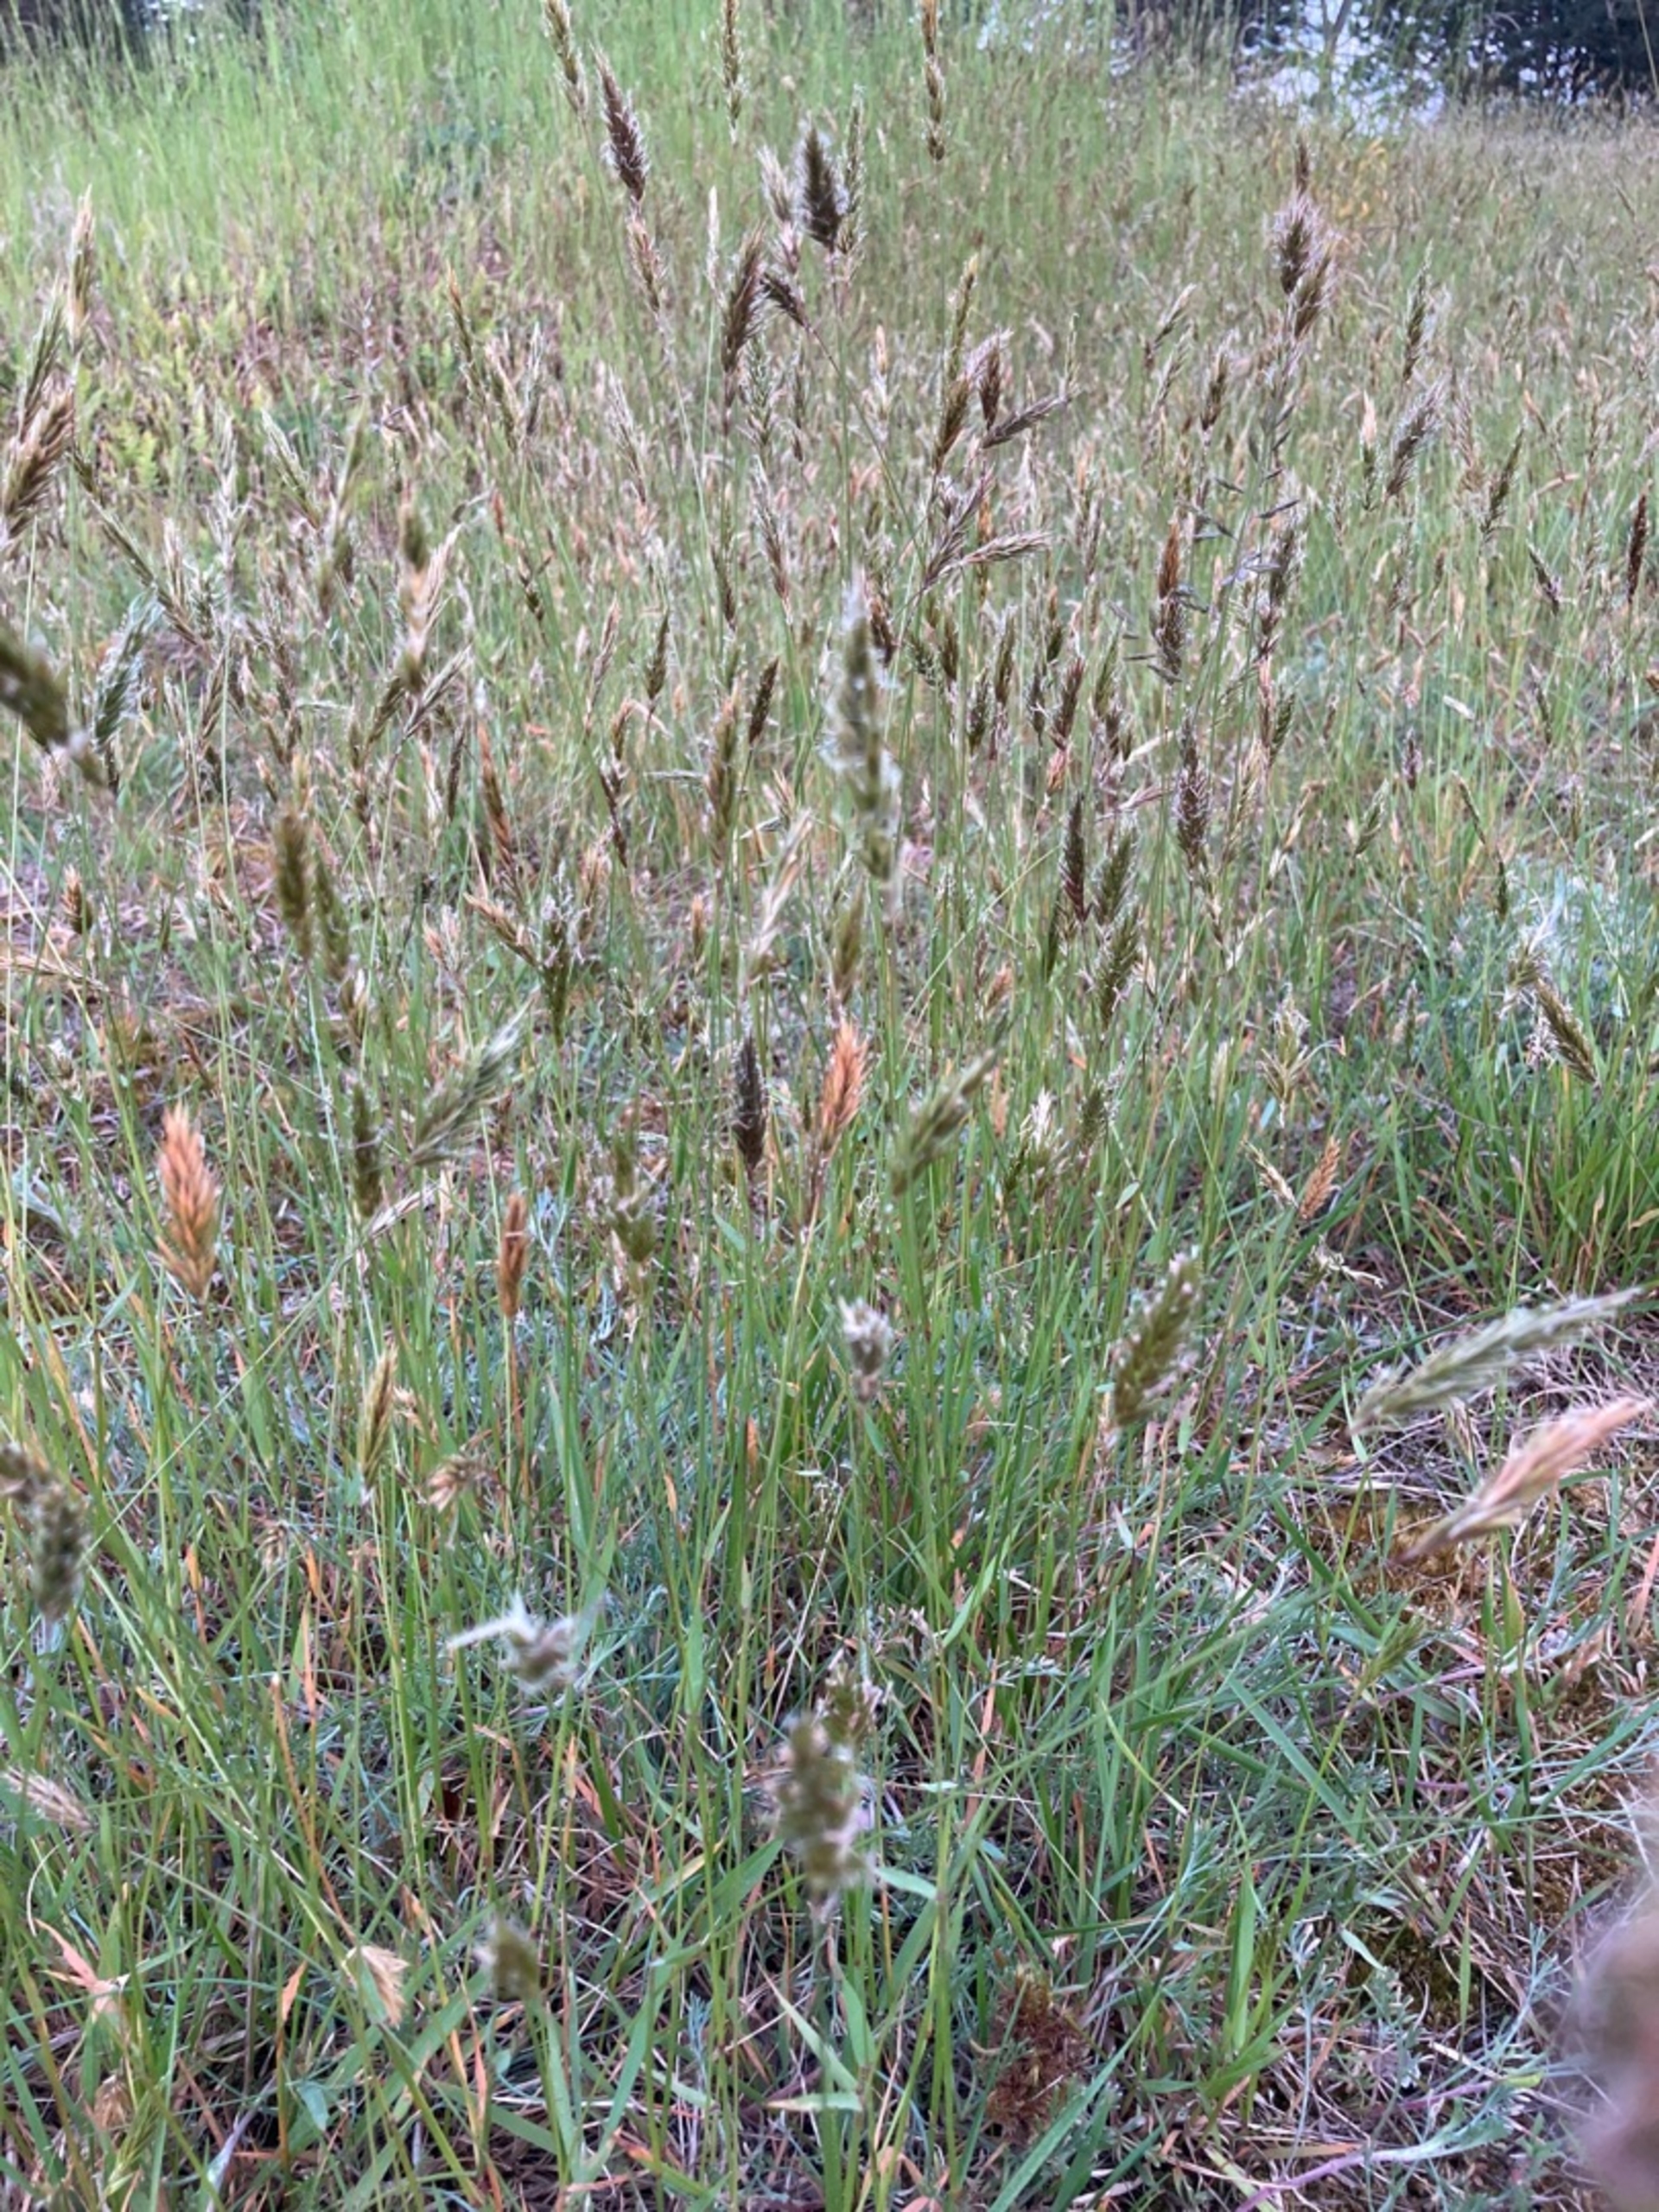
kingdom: Plantae
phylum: Tracheophyta
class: Liliopsida
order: Poales
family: Poaceae
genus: Anthoxanthum
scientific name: Anthoxanthum odoratum
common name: Vellugtende gulaks
